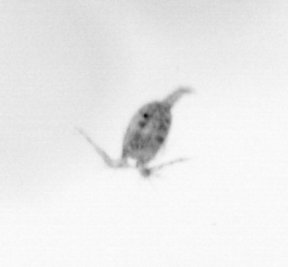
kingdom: Animalia
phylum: Arthropoda
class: Copepoda
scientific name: Copepoda
